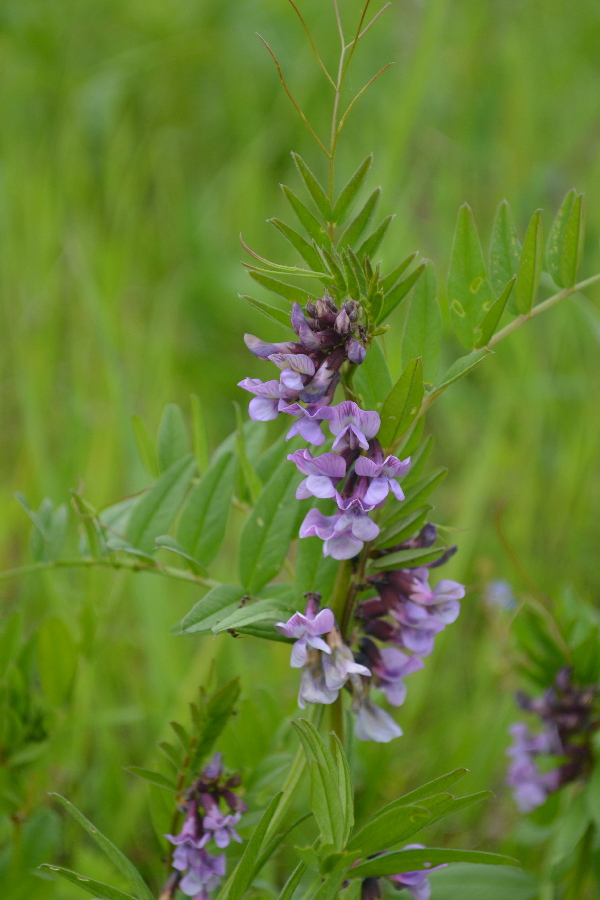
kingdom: Plantae
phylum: Tracheophyta
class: Magnoliopsida
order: Fabales
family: Fabaceae
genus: Vicia
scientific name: Vicia sepium
